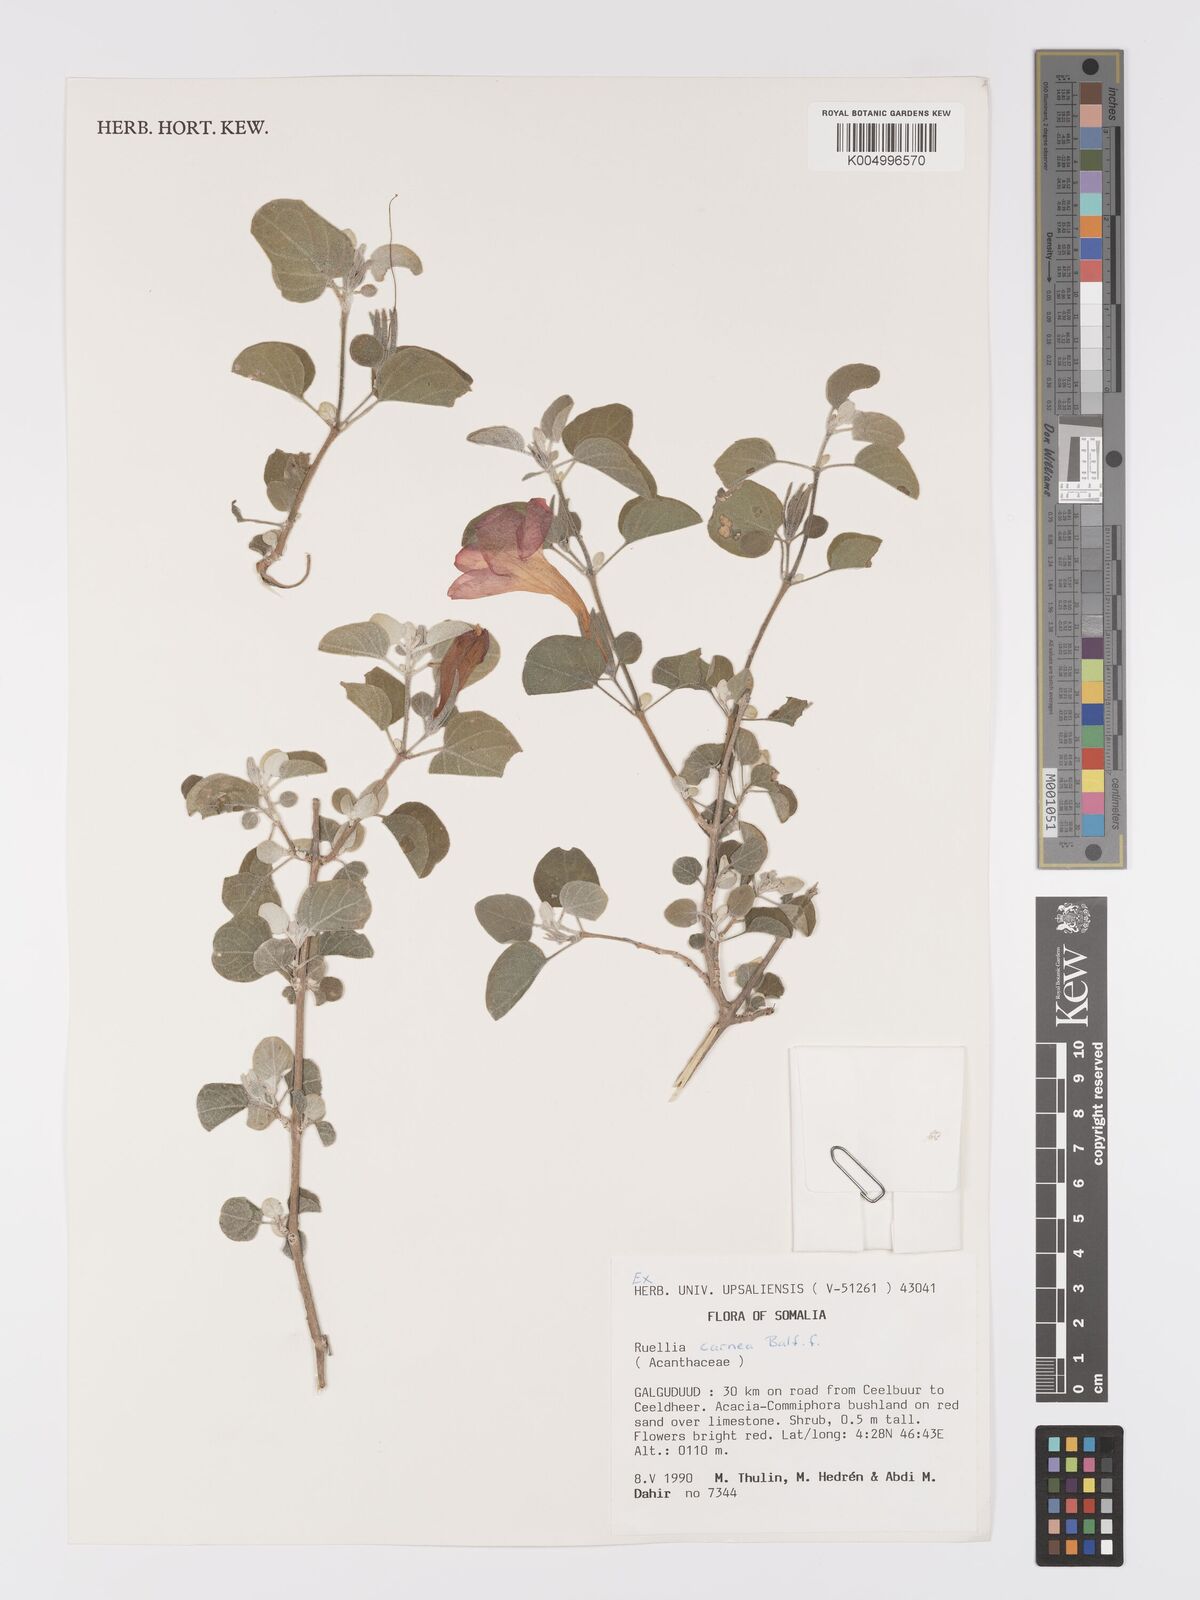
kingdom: Plantae
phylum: Tracheophyta
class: Magnoliopsida
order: Lamiales
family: Acanthaceae
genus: Ruellia
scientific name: Ruellia carnea
